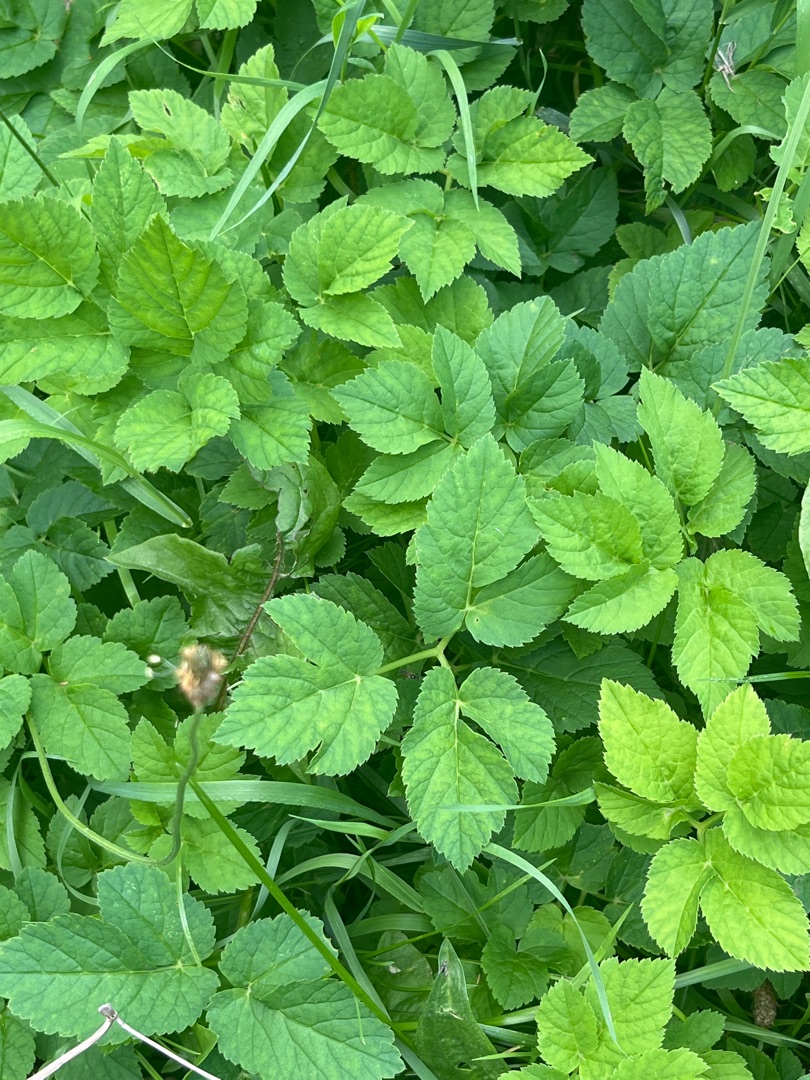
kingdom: Plantae
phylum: Tracheophyta
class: Magnoliopsida
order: Apiales
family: Apiaceae
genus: Aegopodium
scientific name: Aegopodium podagraria
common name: Skvalderkål
